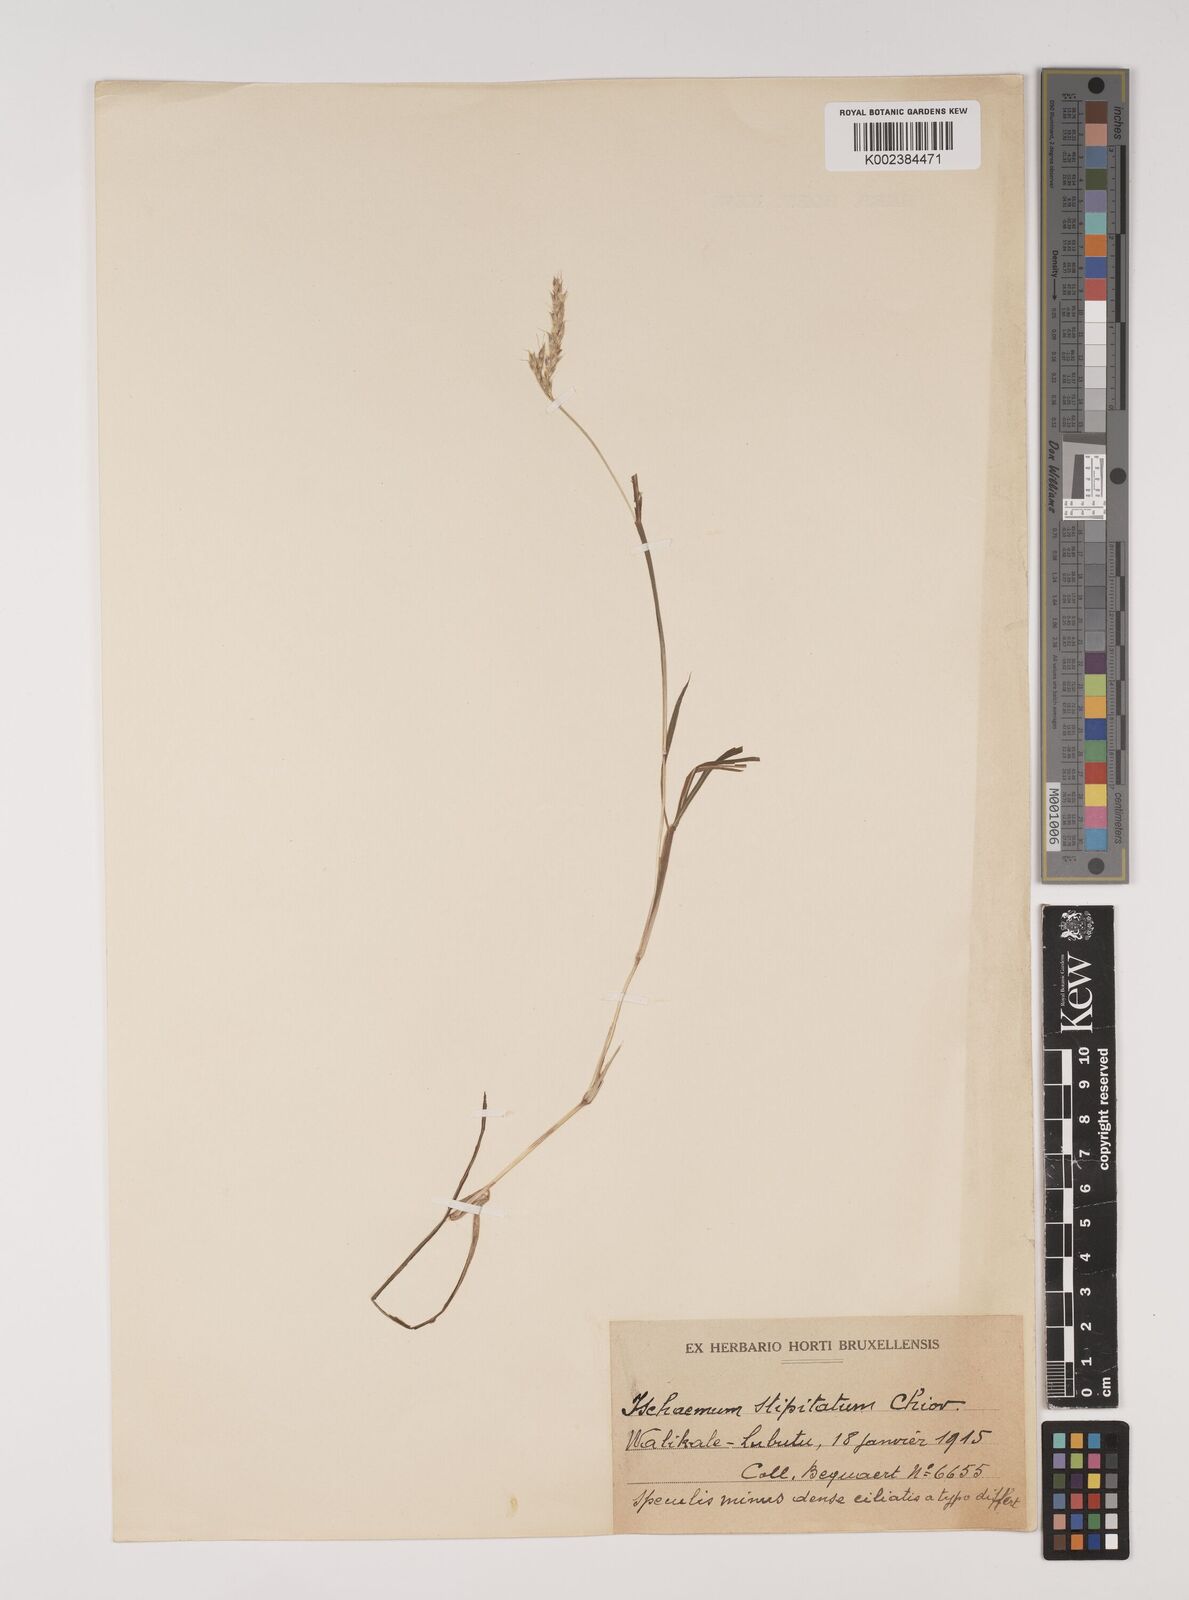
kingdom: Plantae
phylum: Tracheophyta
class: Liliopsida
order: Poales
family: Poaceae
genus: Ischaemum
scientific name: Ischaemum polystachyum
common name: Paddle grass
